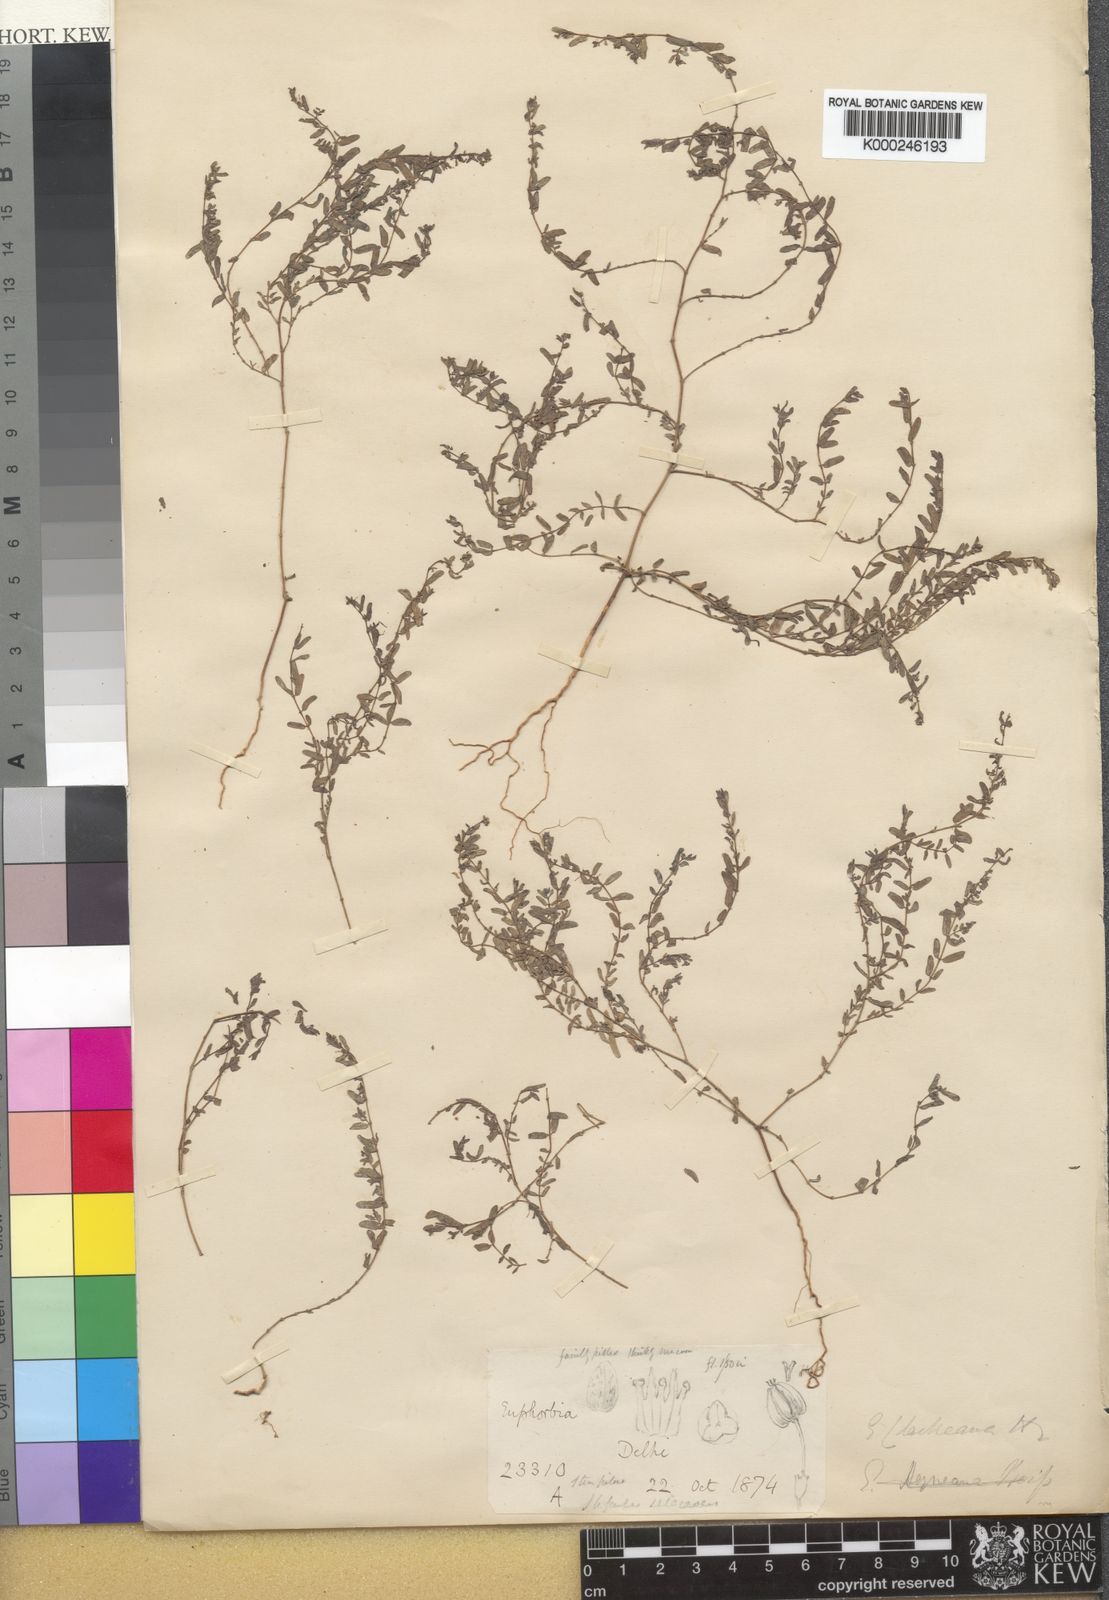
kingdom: Plantae
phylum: Tracheophyta
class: Magnoliopsida
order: Malpighiales
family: Euphorbiaceae
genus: Euphorbia
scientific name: Euphorbia clarkeana
